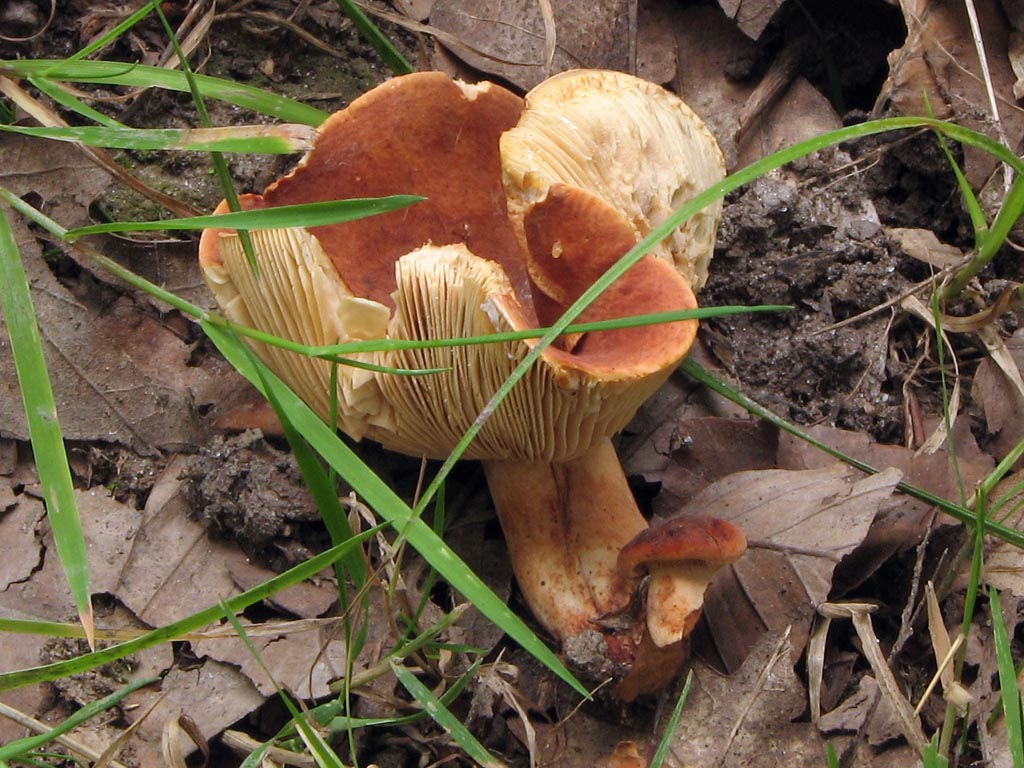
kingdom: Fungi
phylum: Basidiomycota
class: Agaricomycetes
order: Russulales
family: Russulaceae
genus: Lactarius
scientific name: Lactarius fulvissimus
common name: ræve-mælkehat
